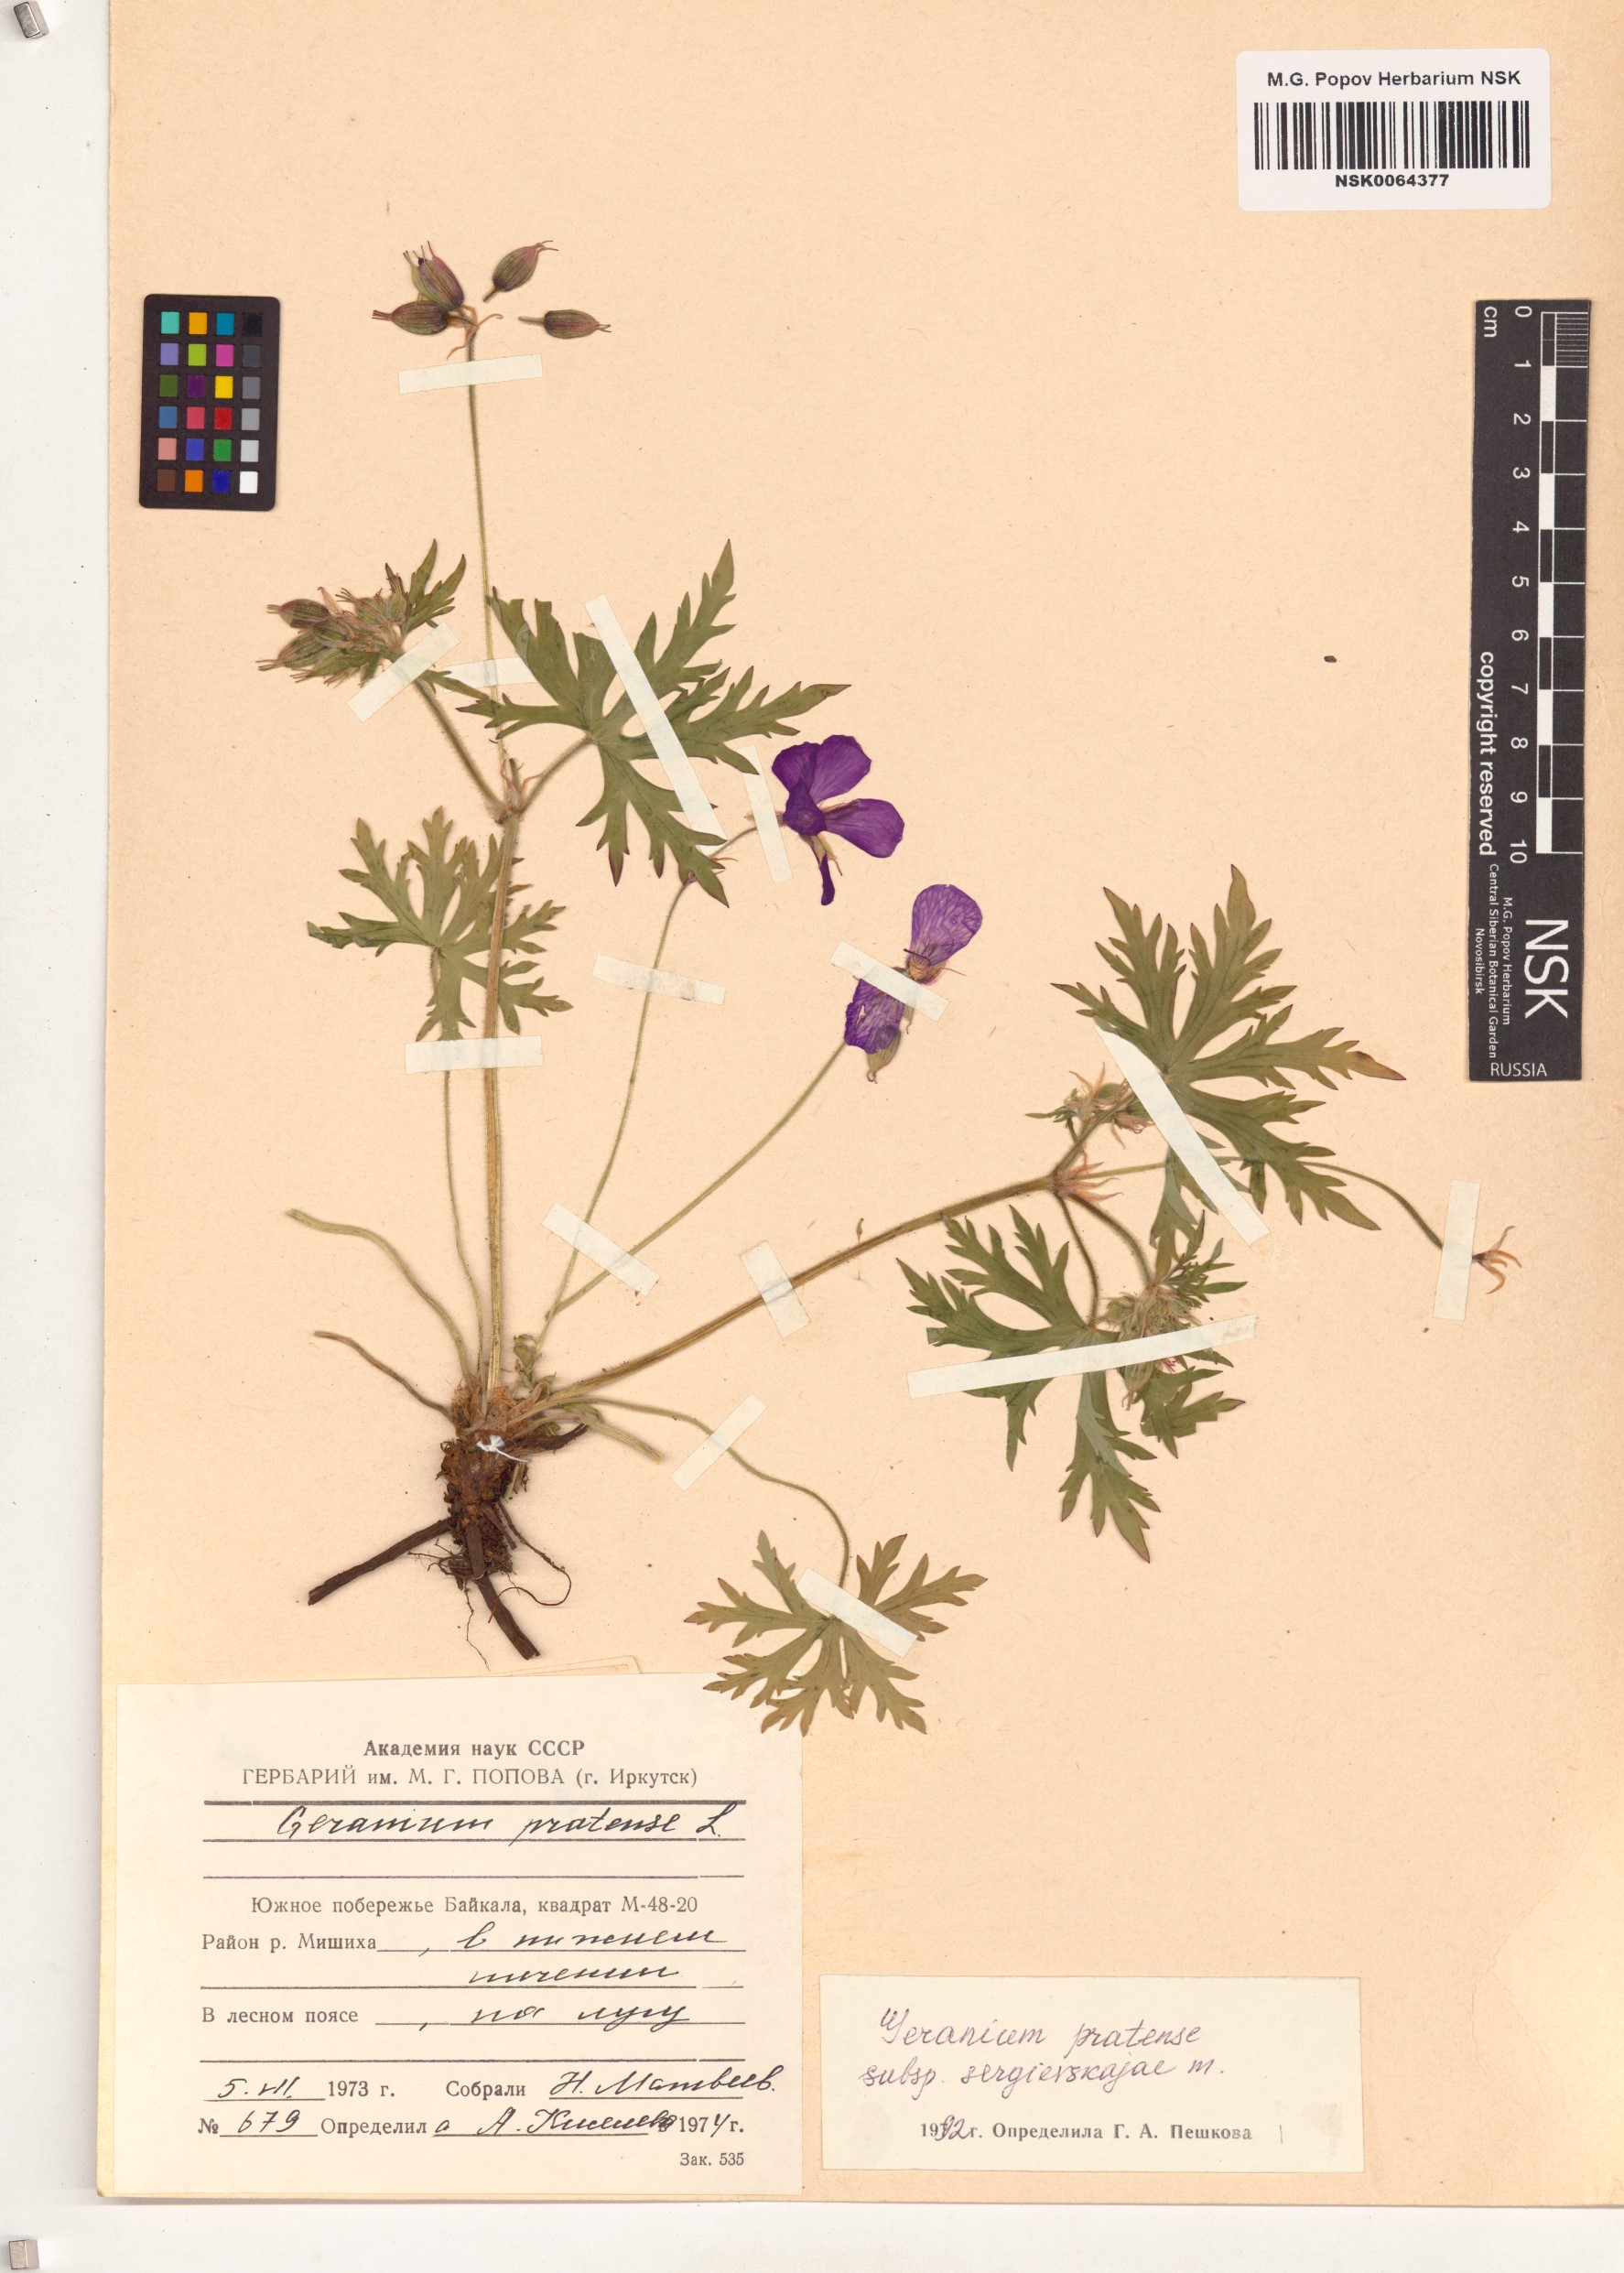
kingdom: Plantae
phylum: Tracheophyta
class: Magnoliopsida
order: Geraniales
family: Geraniaceae
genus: Geranium
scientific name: Geranium pratense
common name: Meadow crane's-bill
